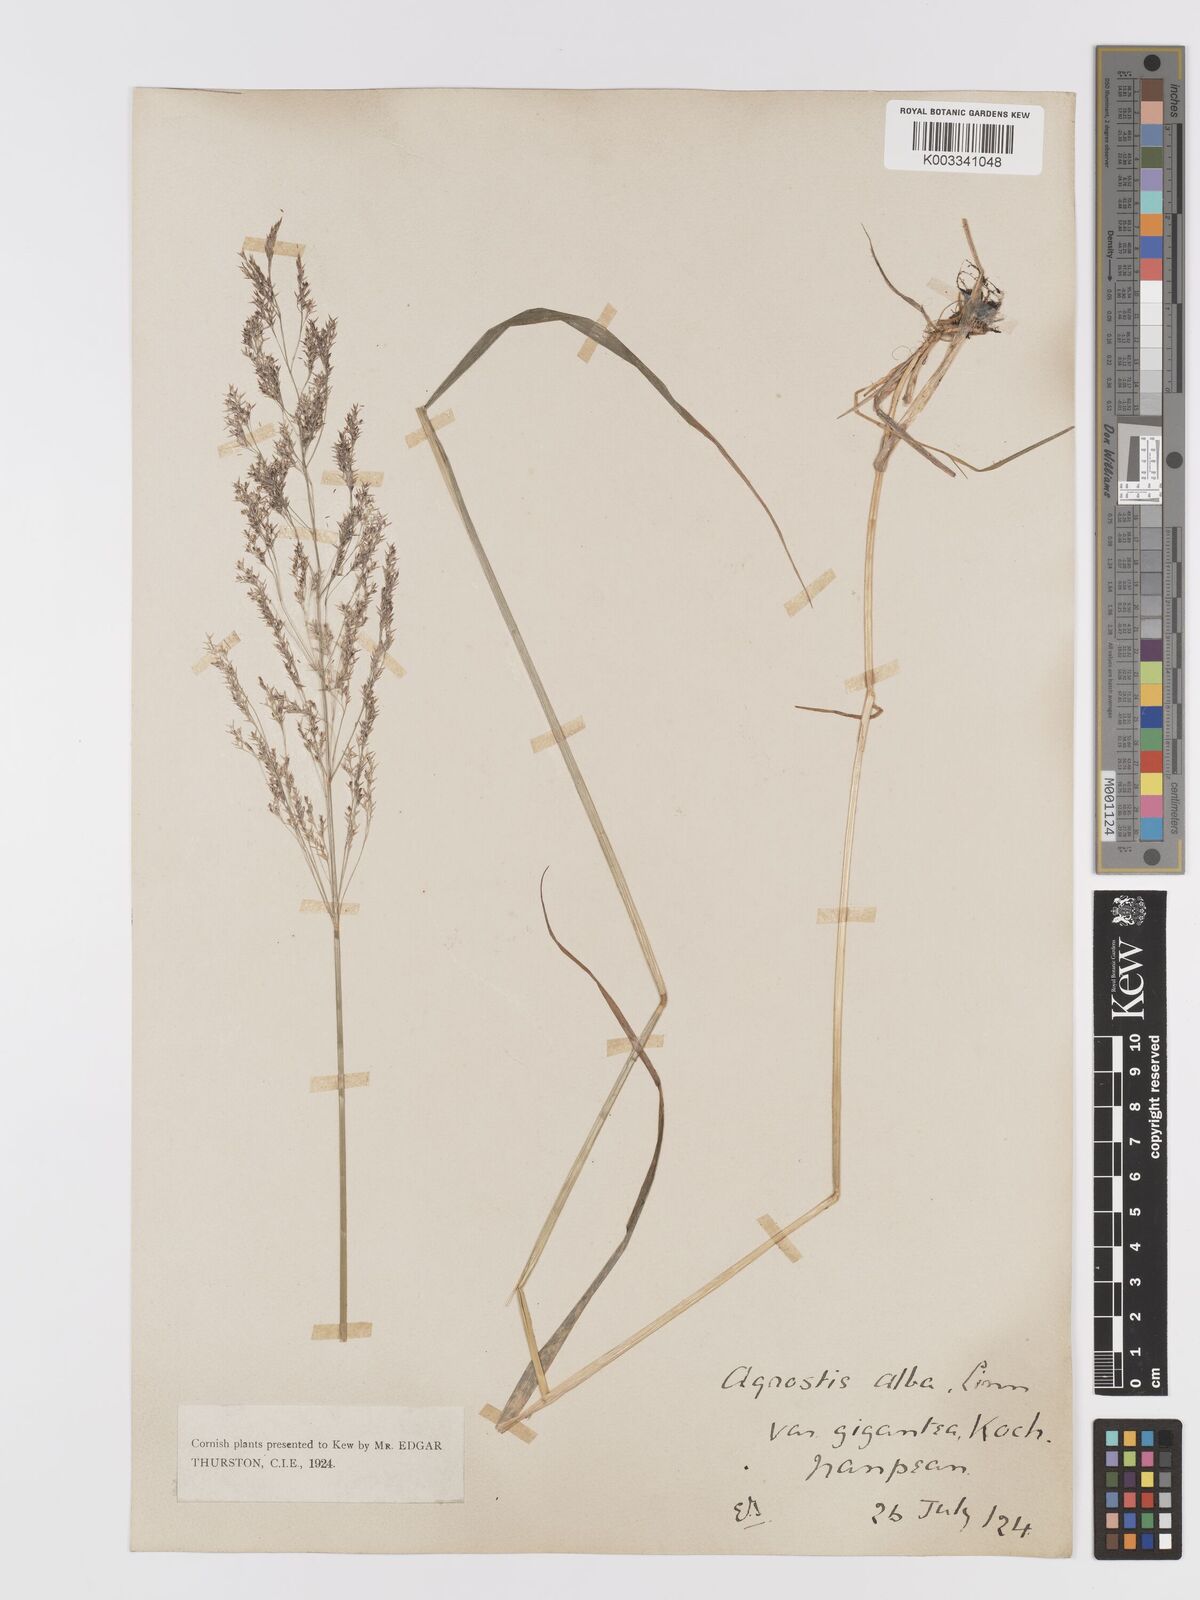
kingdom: Plantae
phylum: Tracheophyta
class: Liliopsida
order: Poales
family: Poaceae
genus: Agrostis
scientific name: Agrostis gigantea
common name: Black bent
